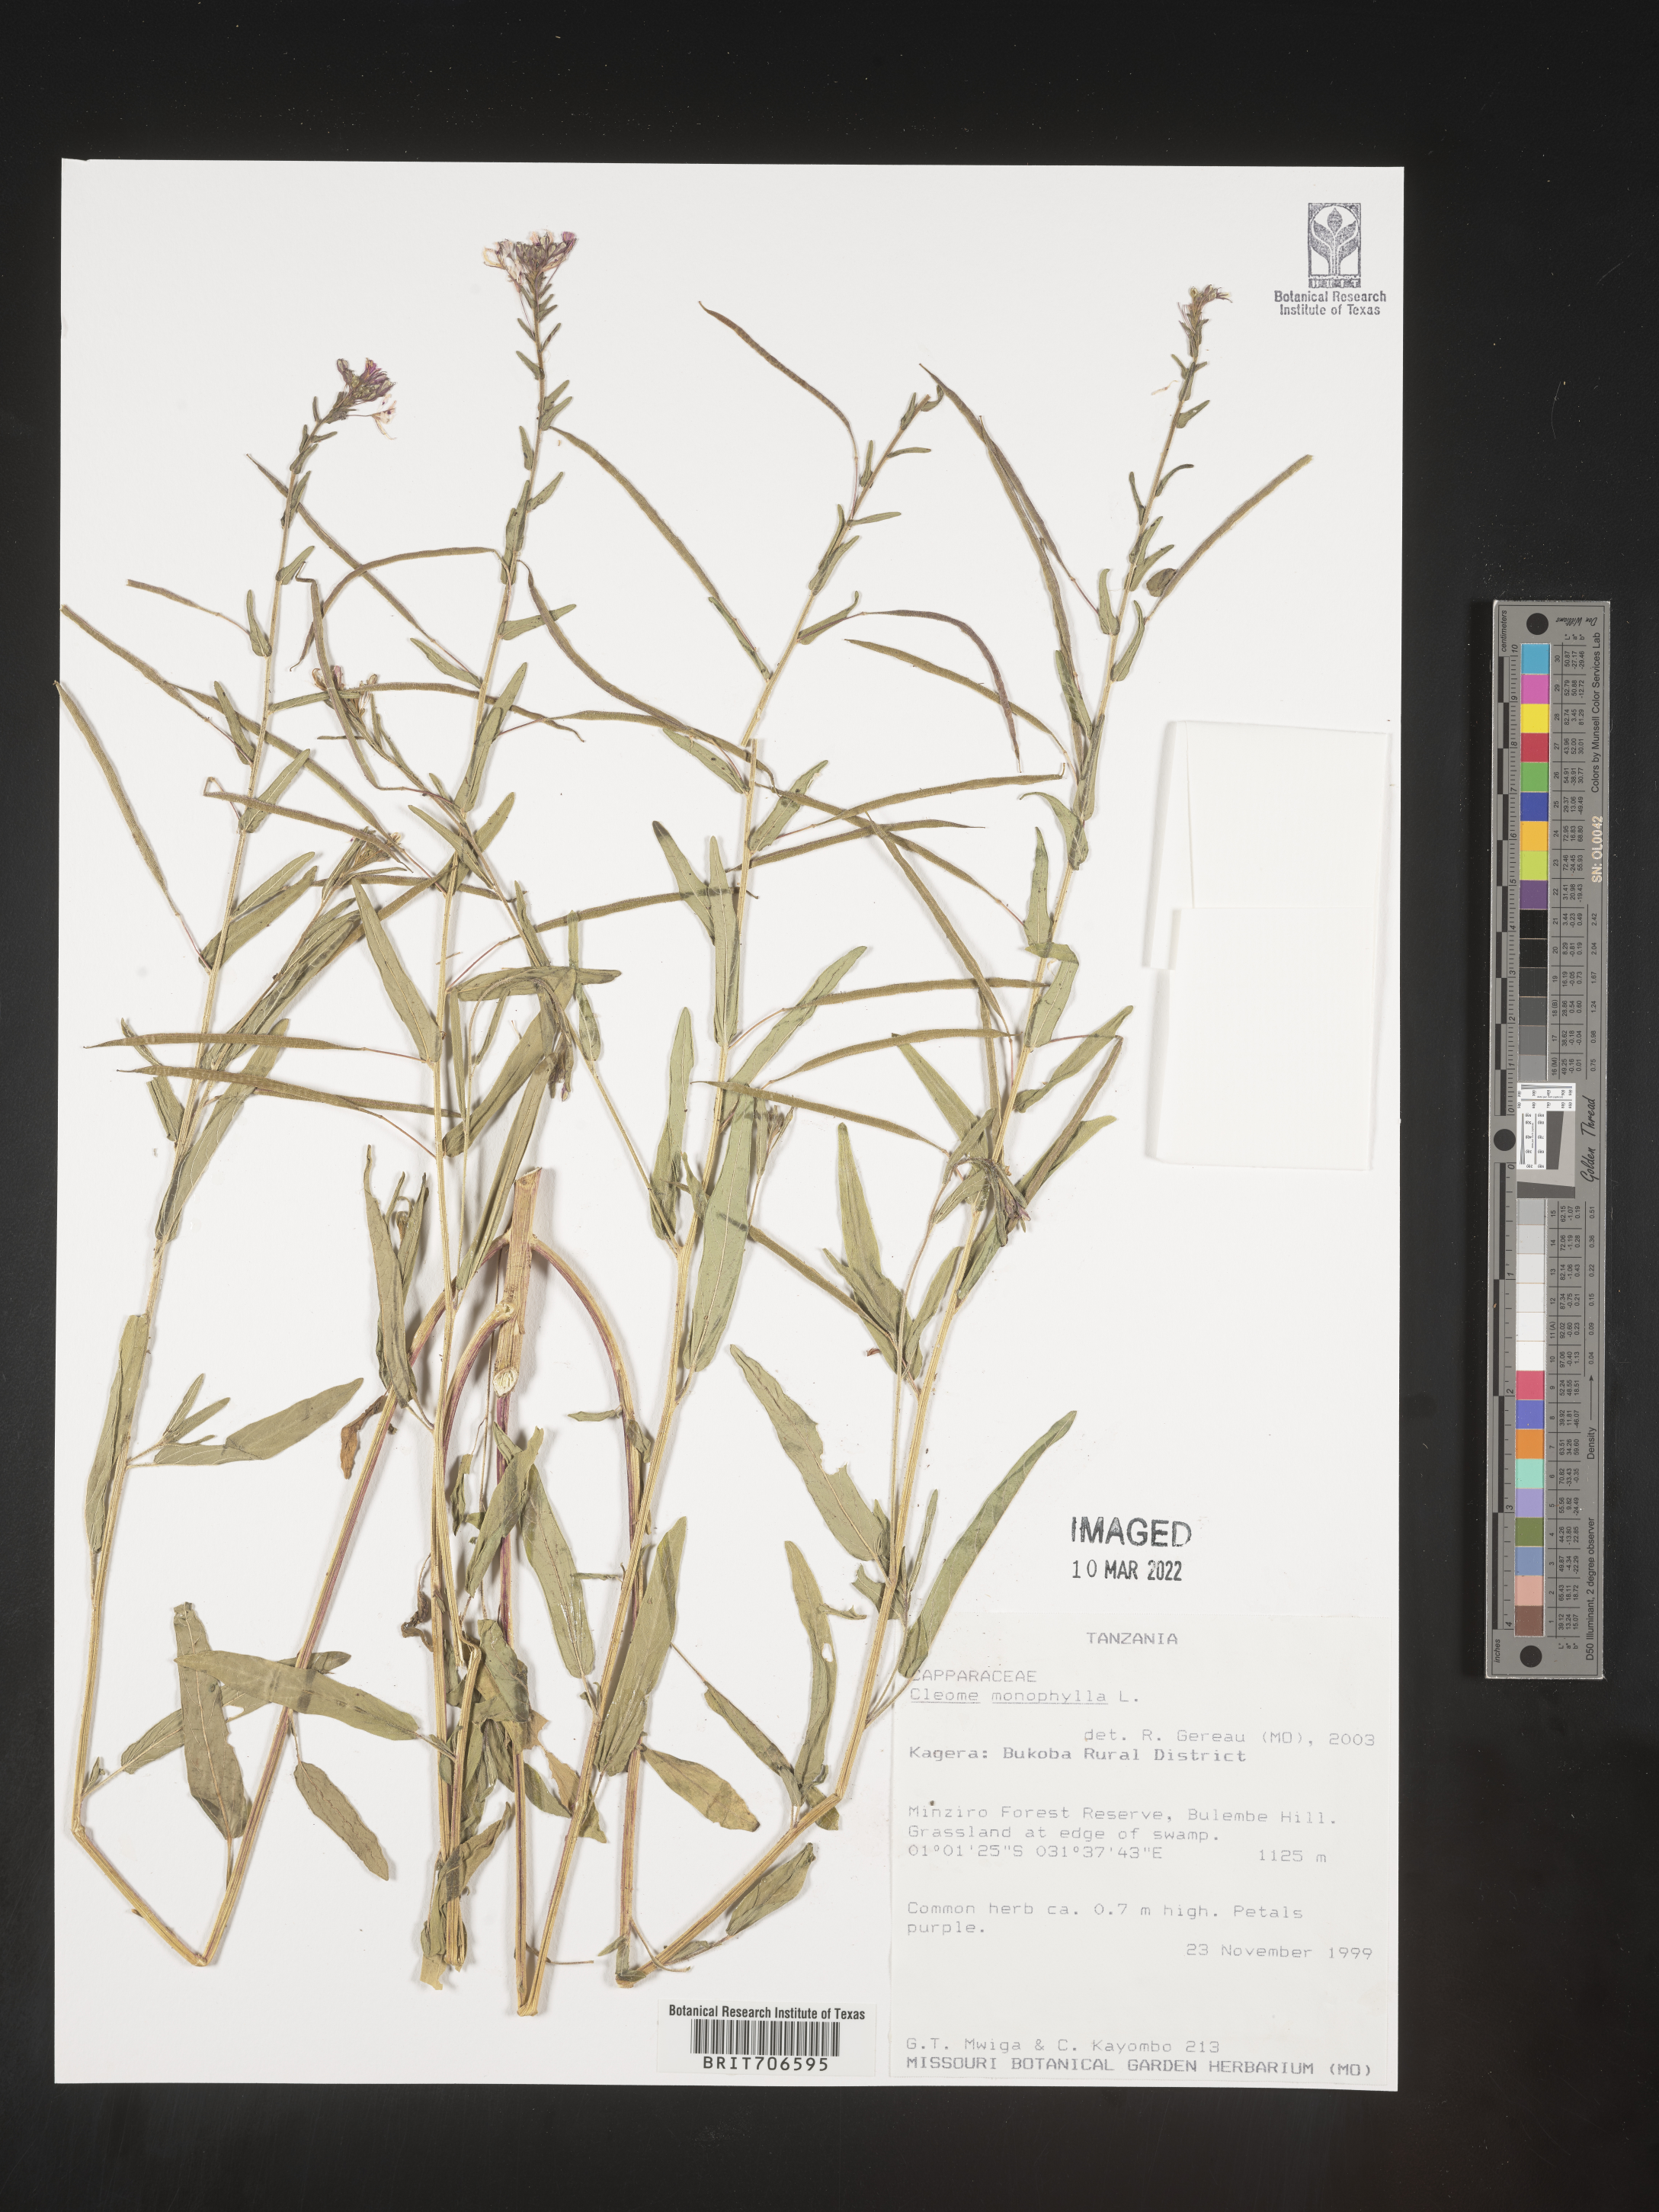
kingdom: Plantae
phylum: Tracheophyta
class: Magnoliopsida
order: Brassicales
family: Cleomaceae
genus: Cleome
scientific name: Cleome
